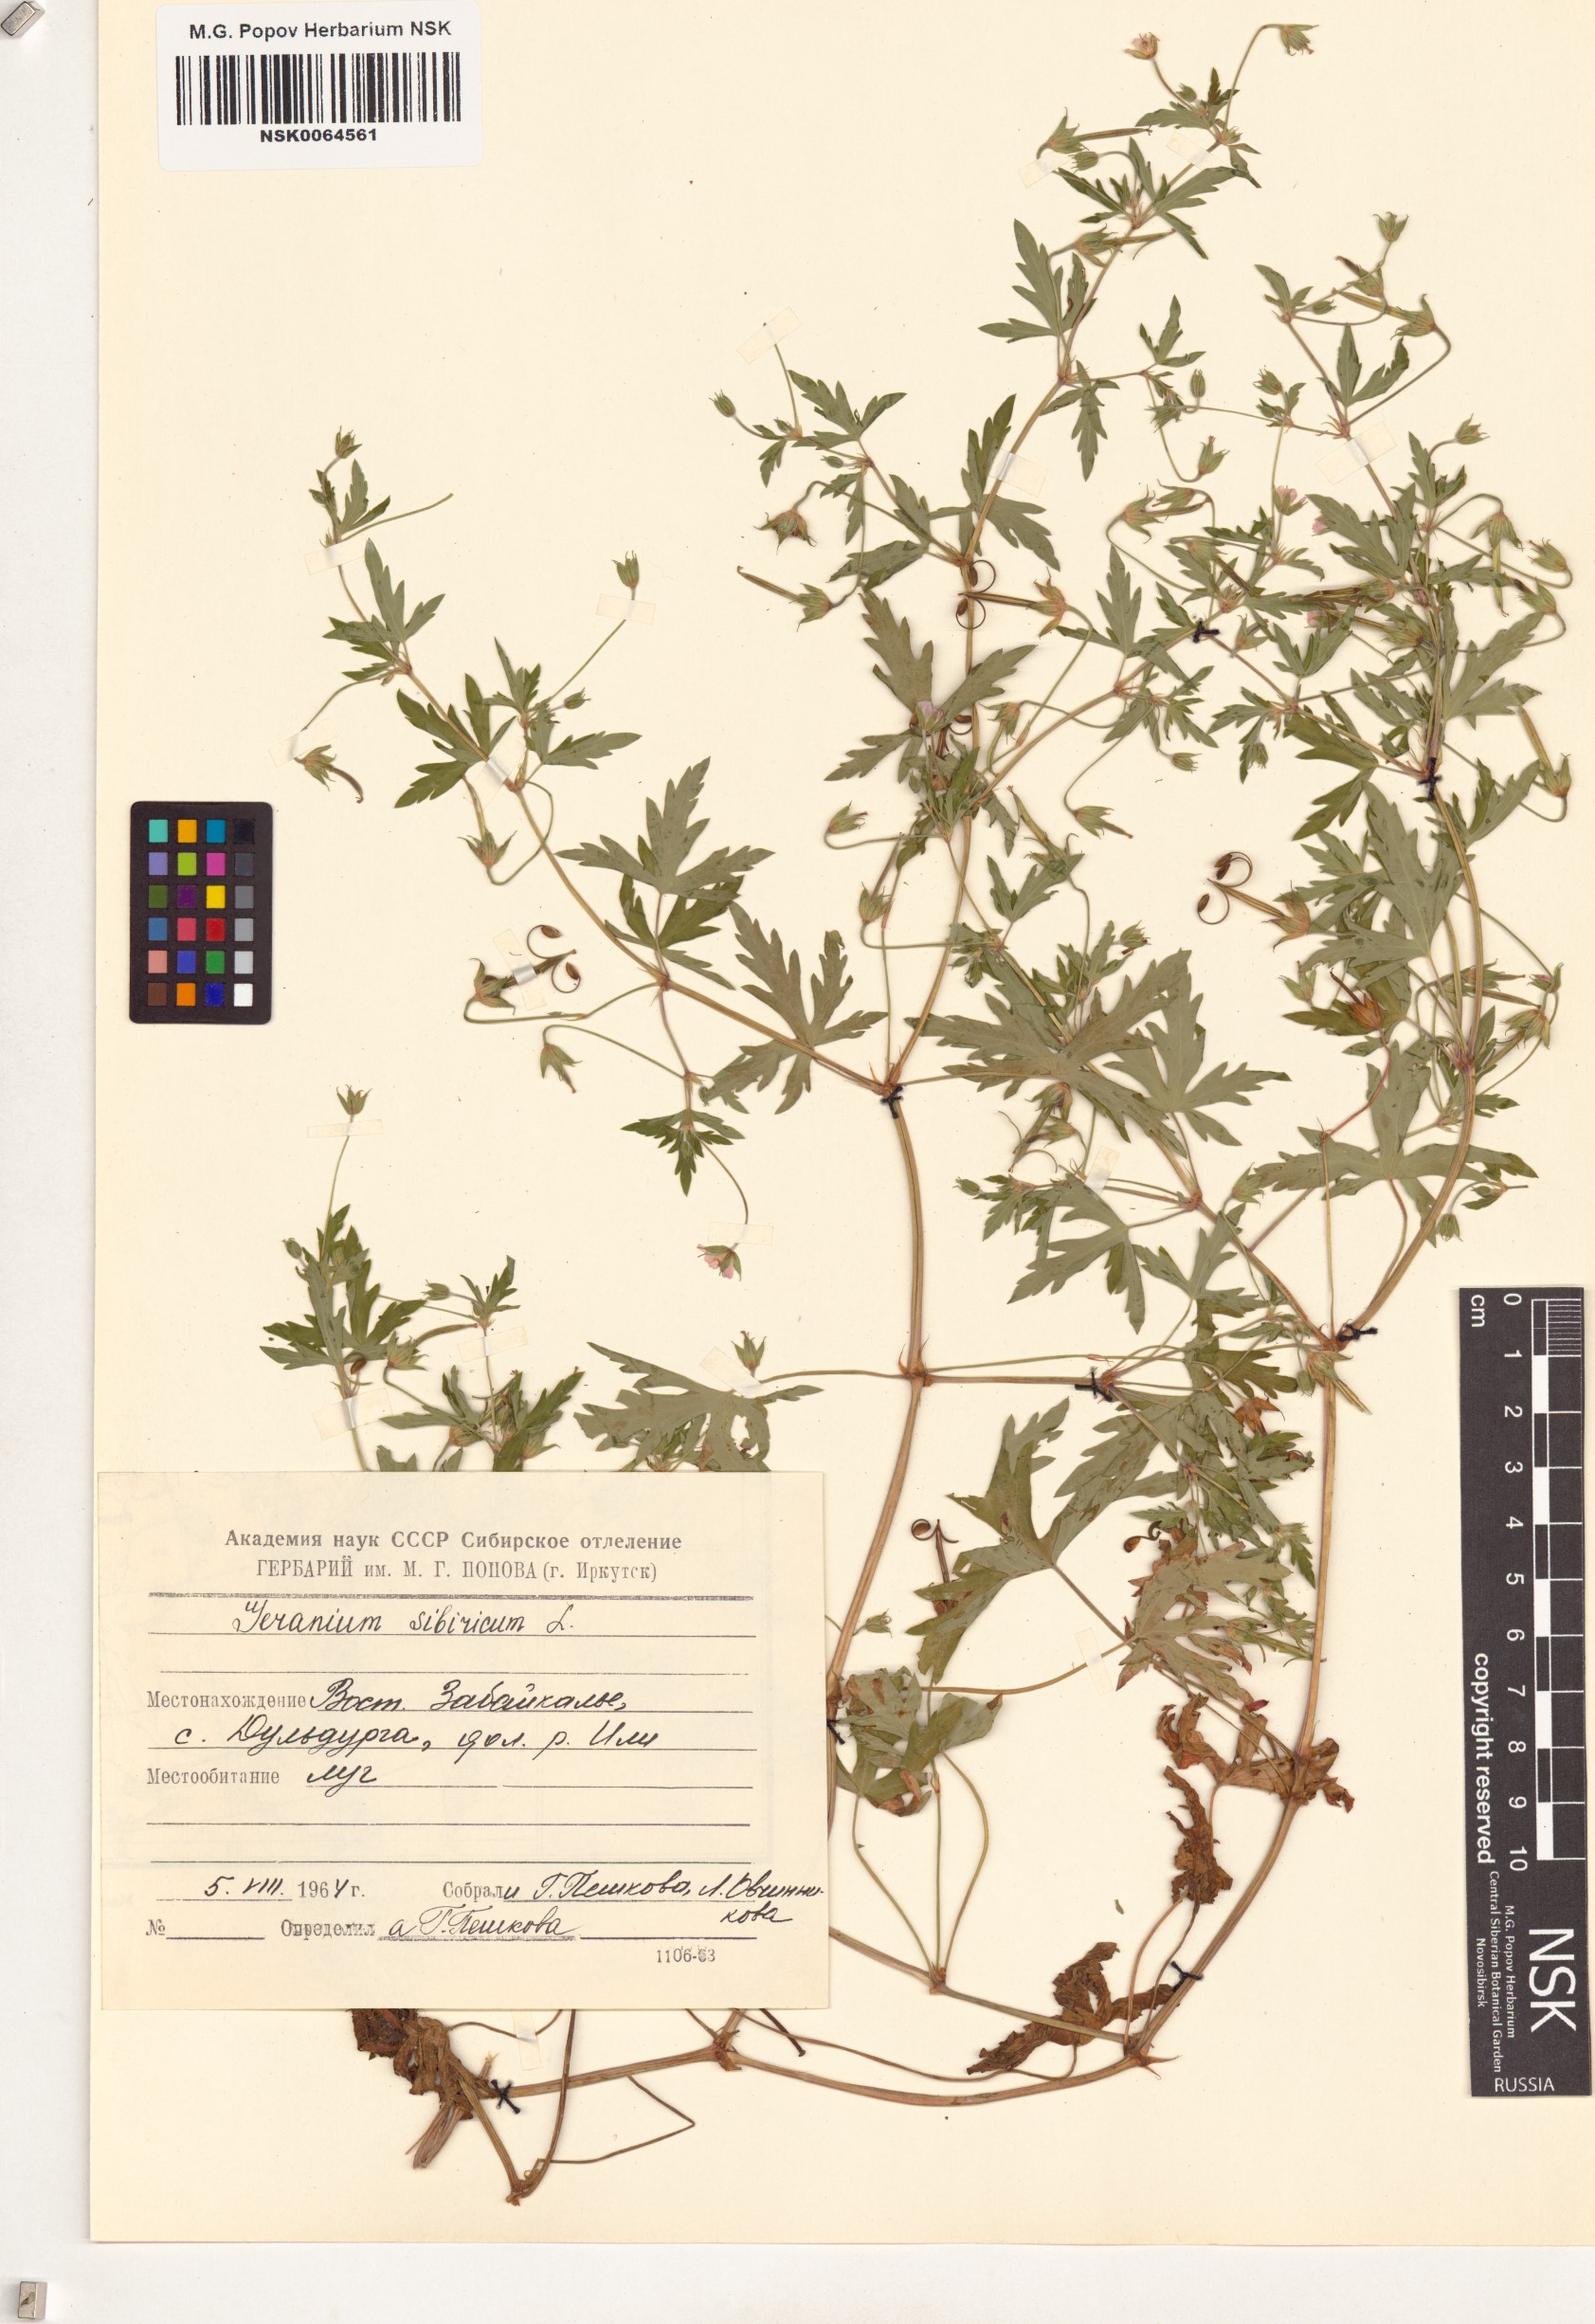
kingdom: Plantae
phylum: Tracheophyta
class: Magnoliopsida
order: Geraniales
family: Geraniaceae
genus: Geranium
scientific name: Geranium sibiricum
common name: Siberian crane's-bill
